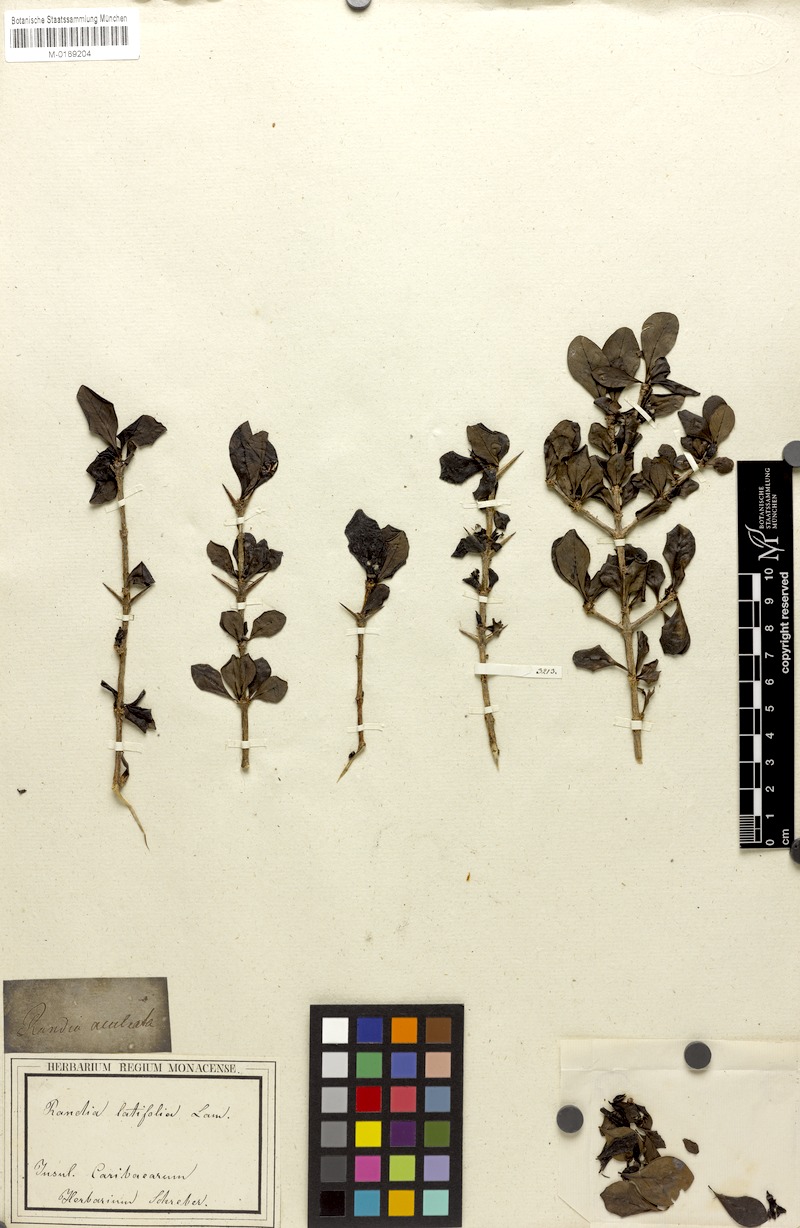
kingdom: Plantae
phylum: Tracheophyta
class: Magnoliopsida
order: Gentianales
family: Rubiaceae
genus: Randia
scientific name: Randia aculeata
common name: Inkberry
